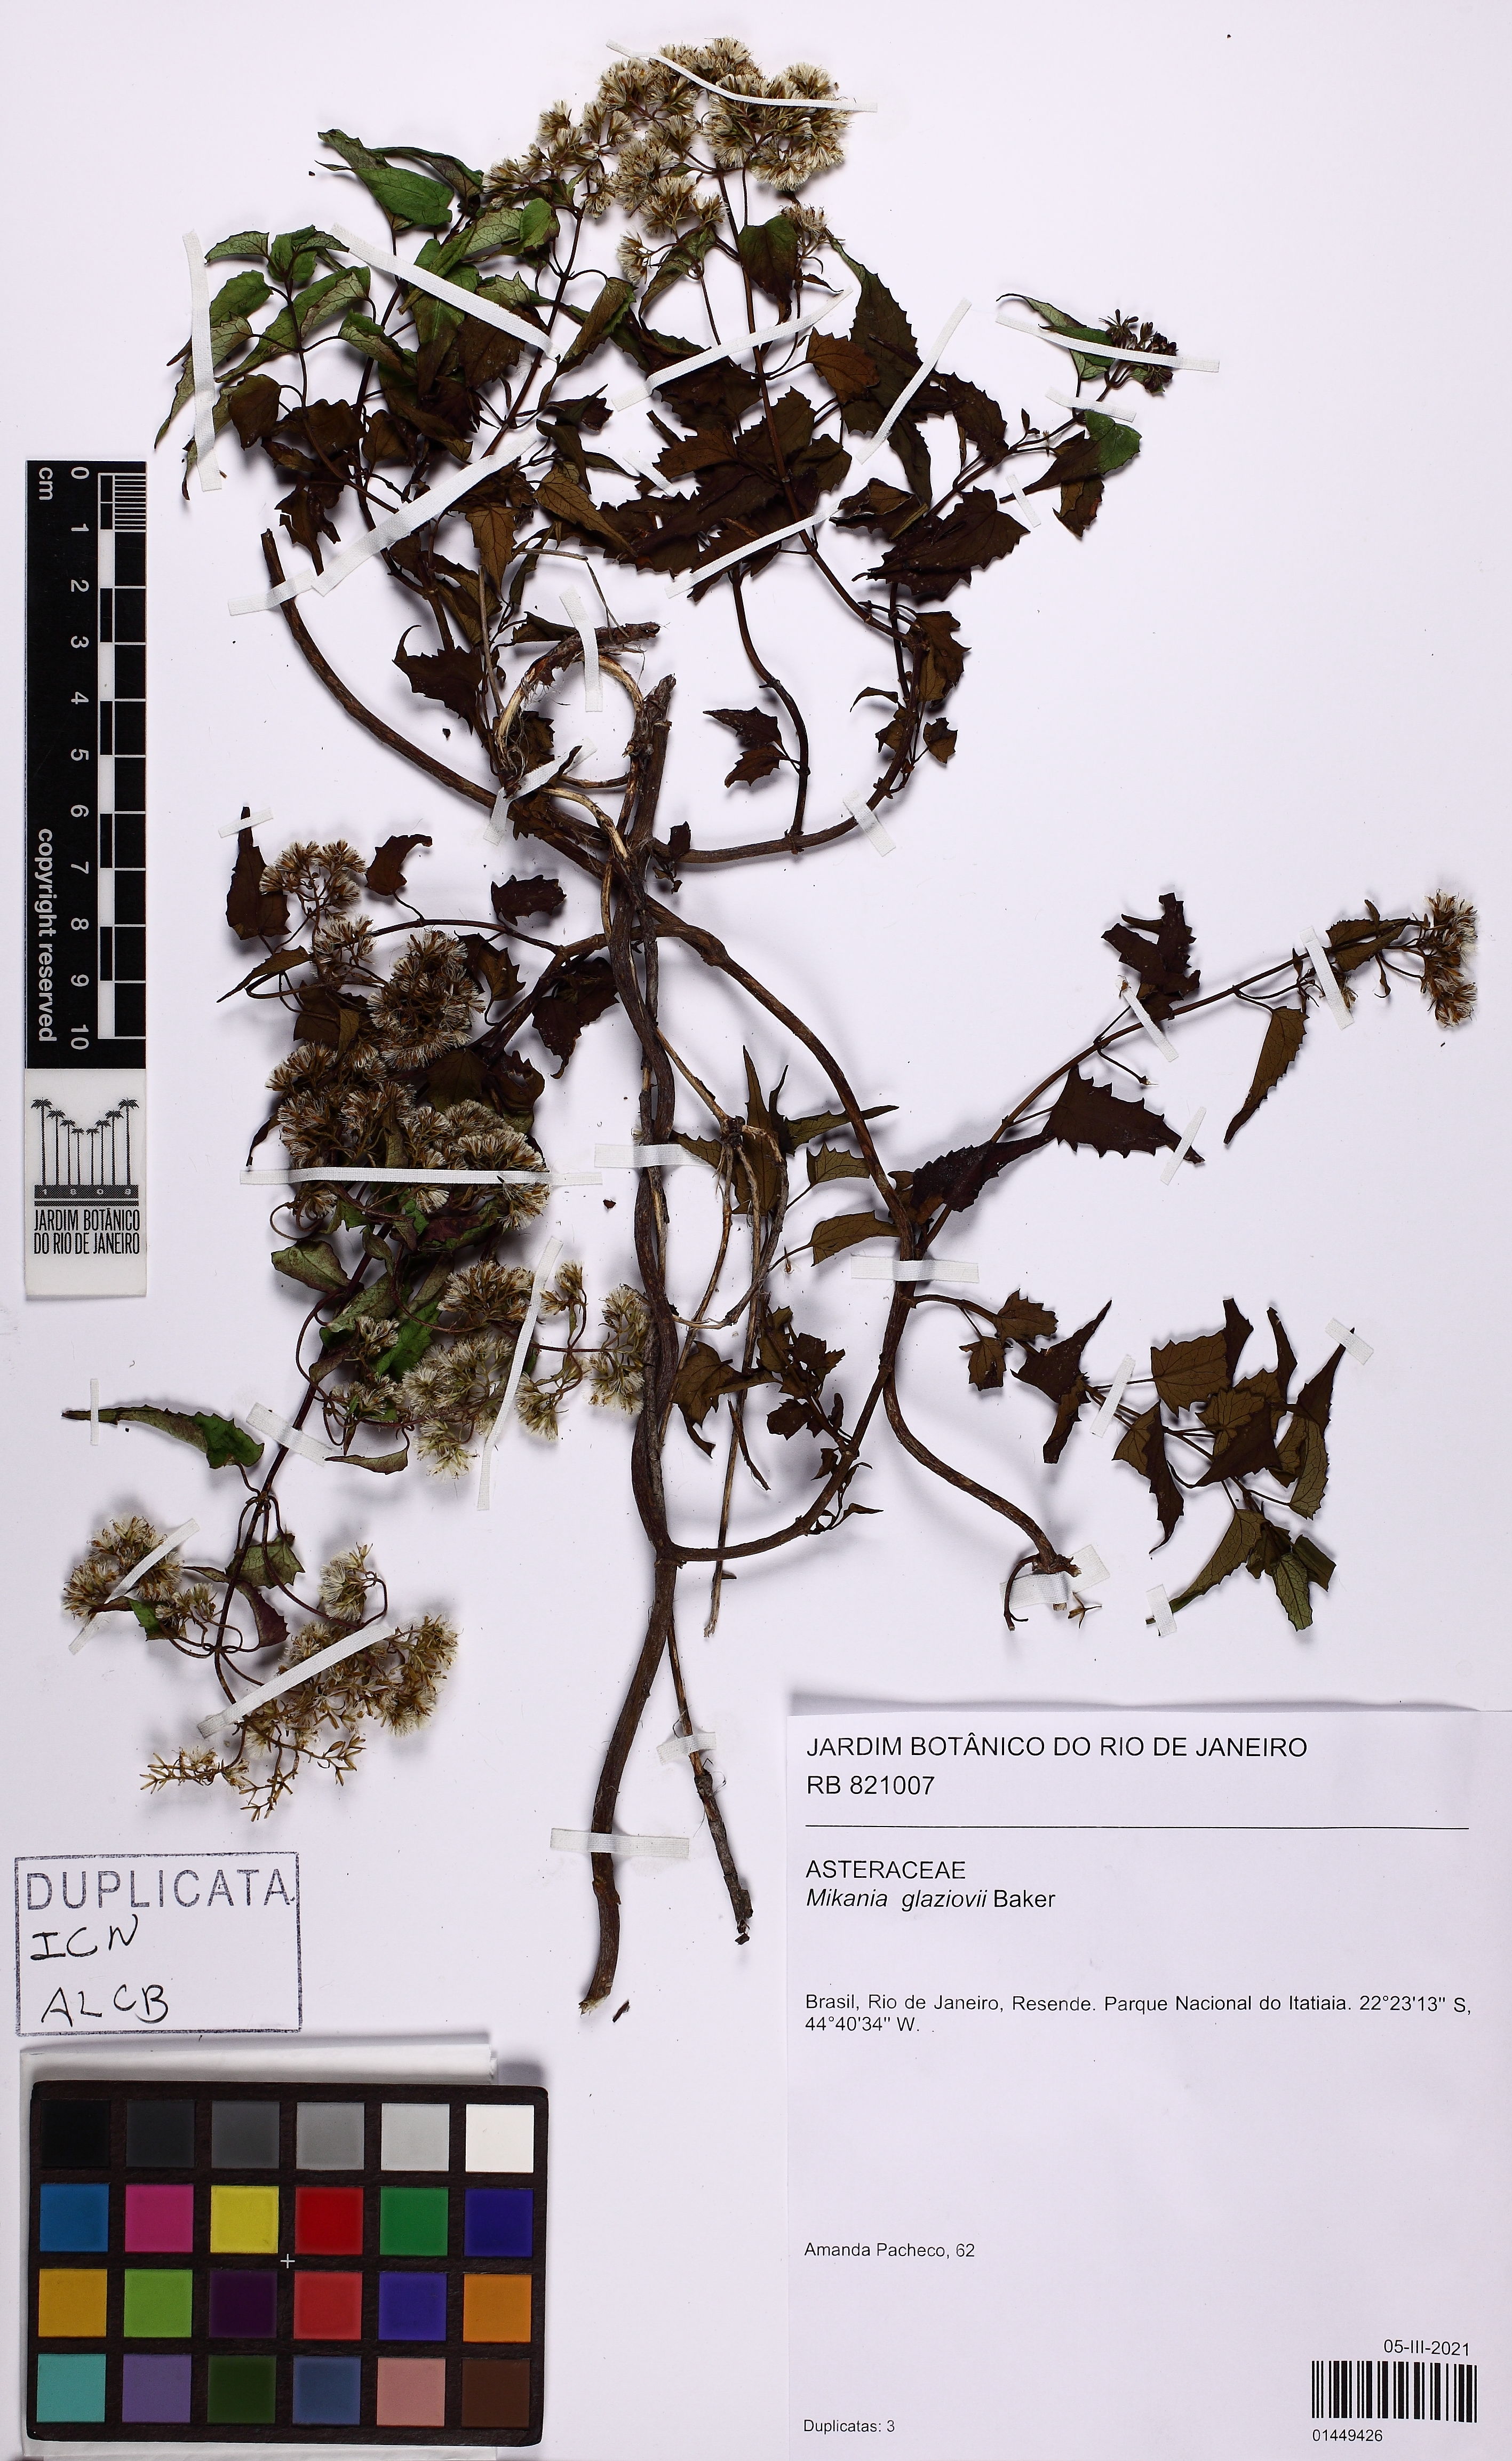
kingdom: Plantae
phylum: Tracheophyta
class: Magnoliopsida
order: Asterales
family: Asteraceae
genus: Mikania
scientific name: Mikania glaziovii
